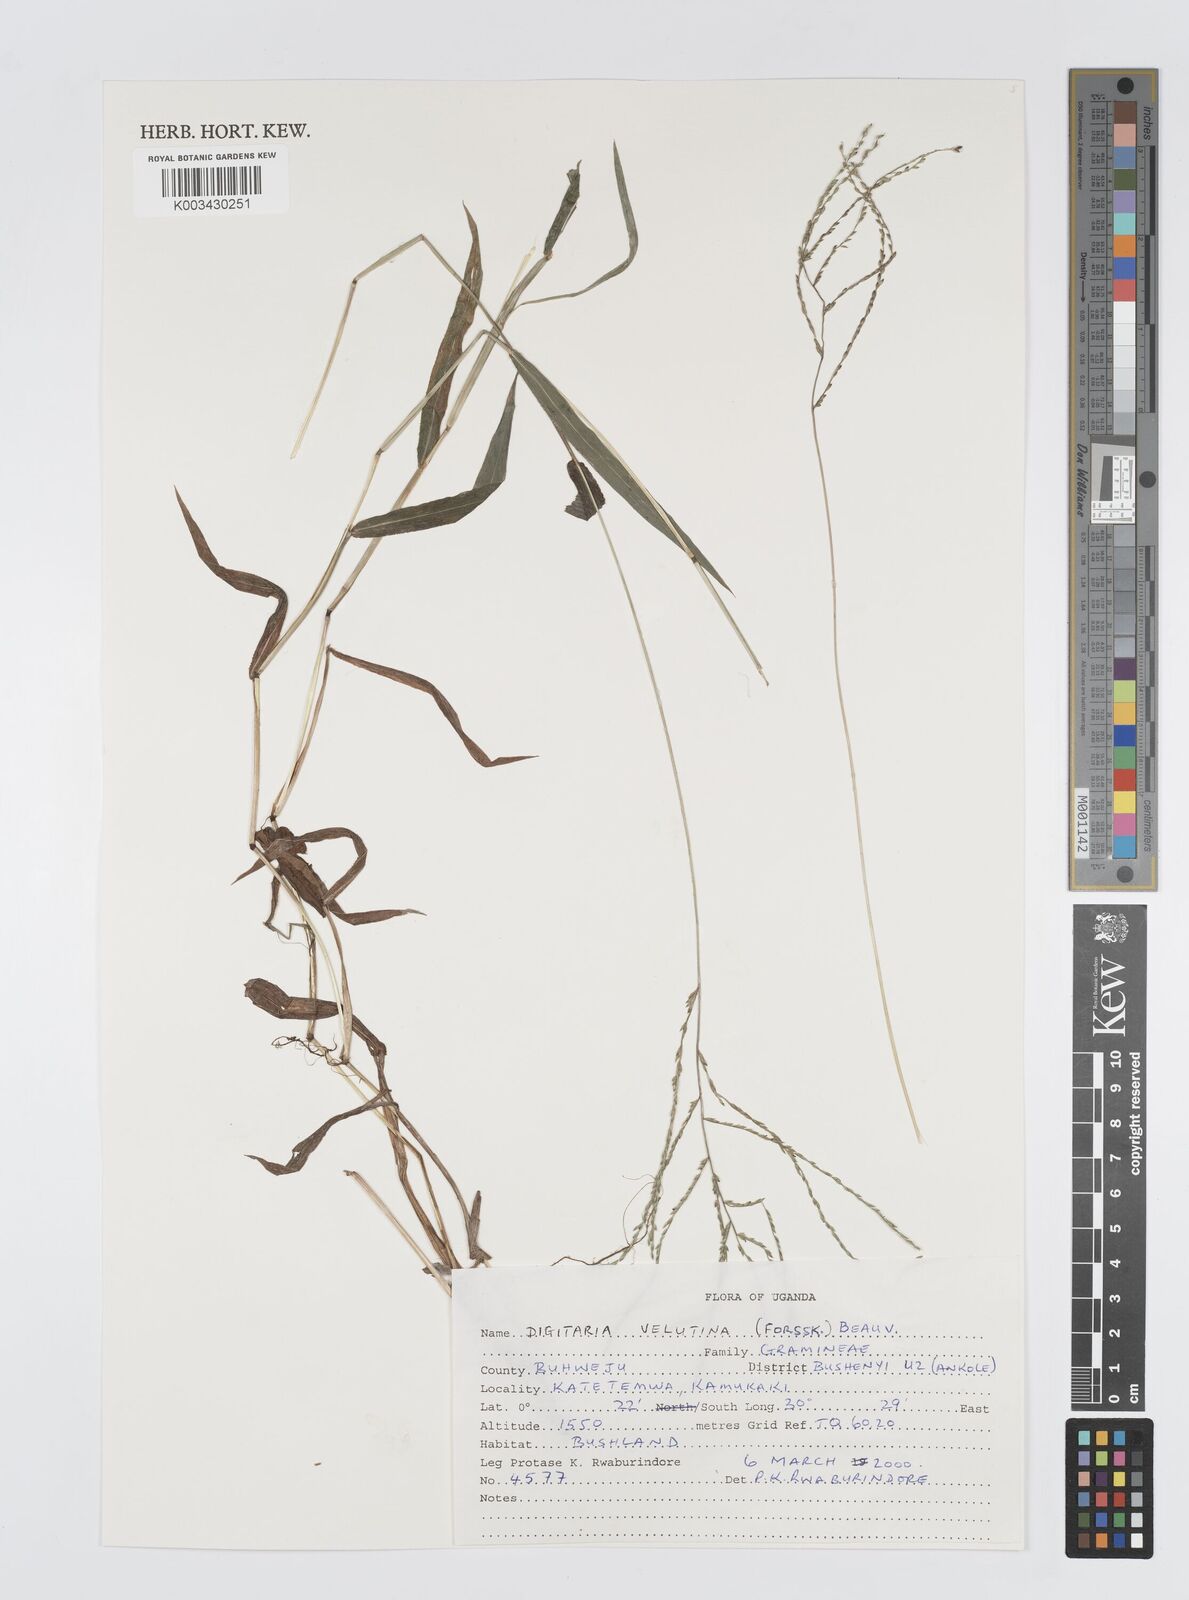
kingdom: Plantae
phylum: Tracheophyta
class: Liliopsida
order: Poales
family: Poaceae
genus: Digitaria
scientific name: Digitaria velutina
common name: Long-plume finger grass
